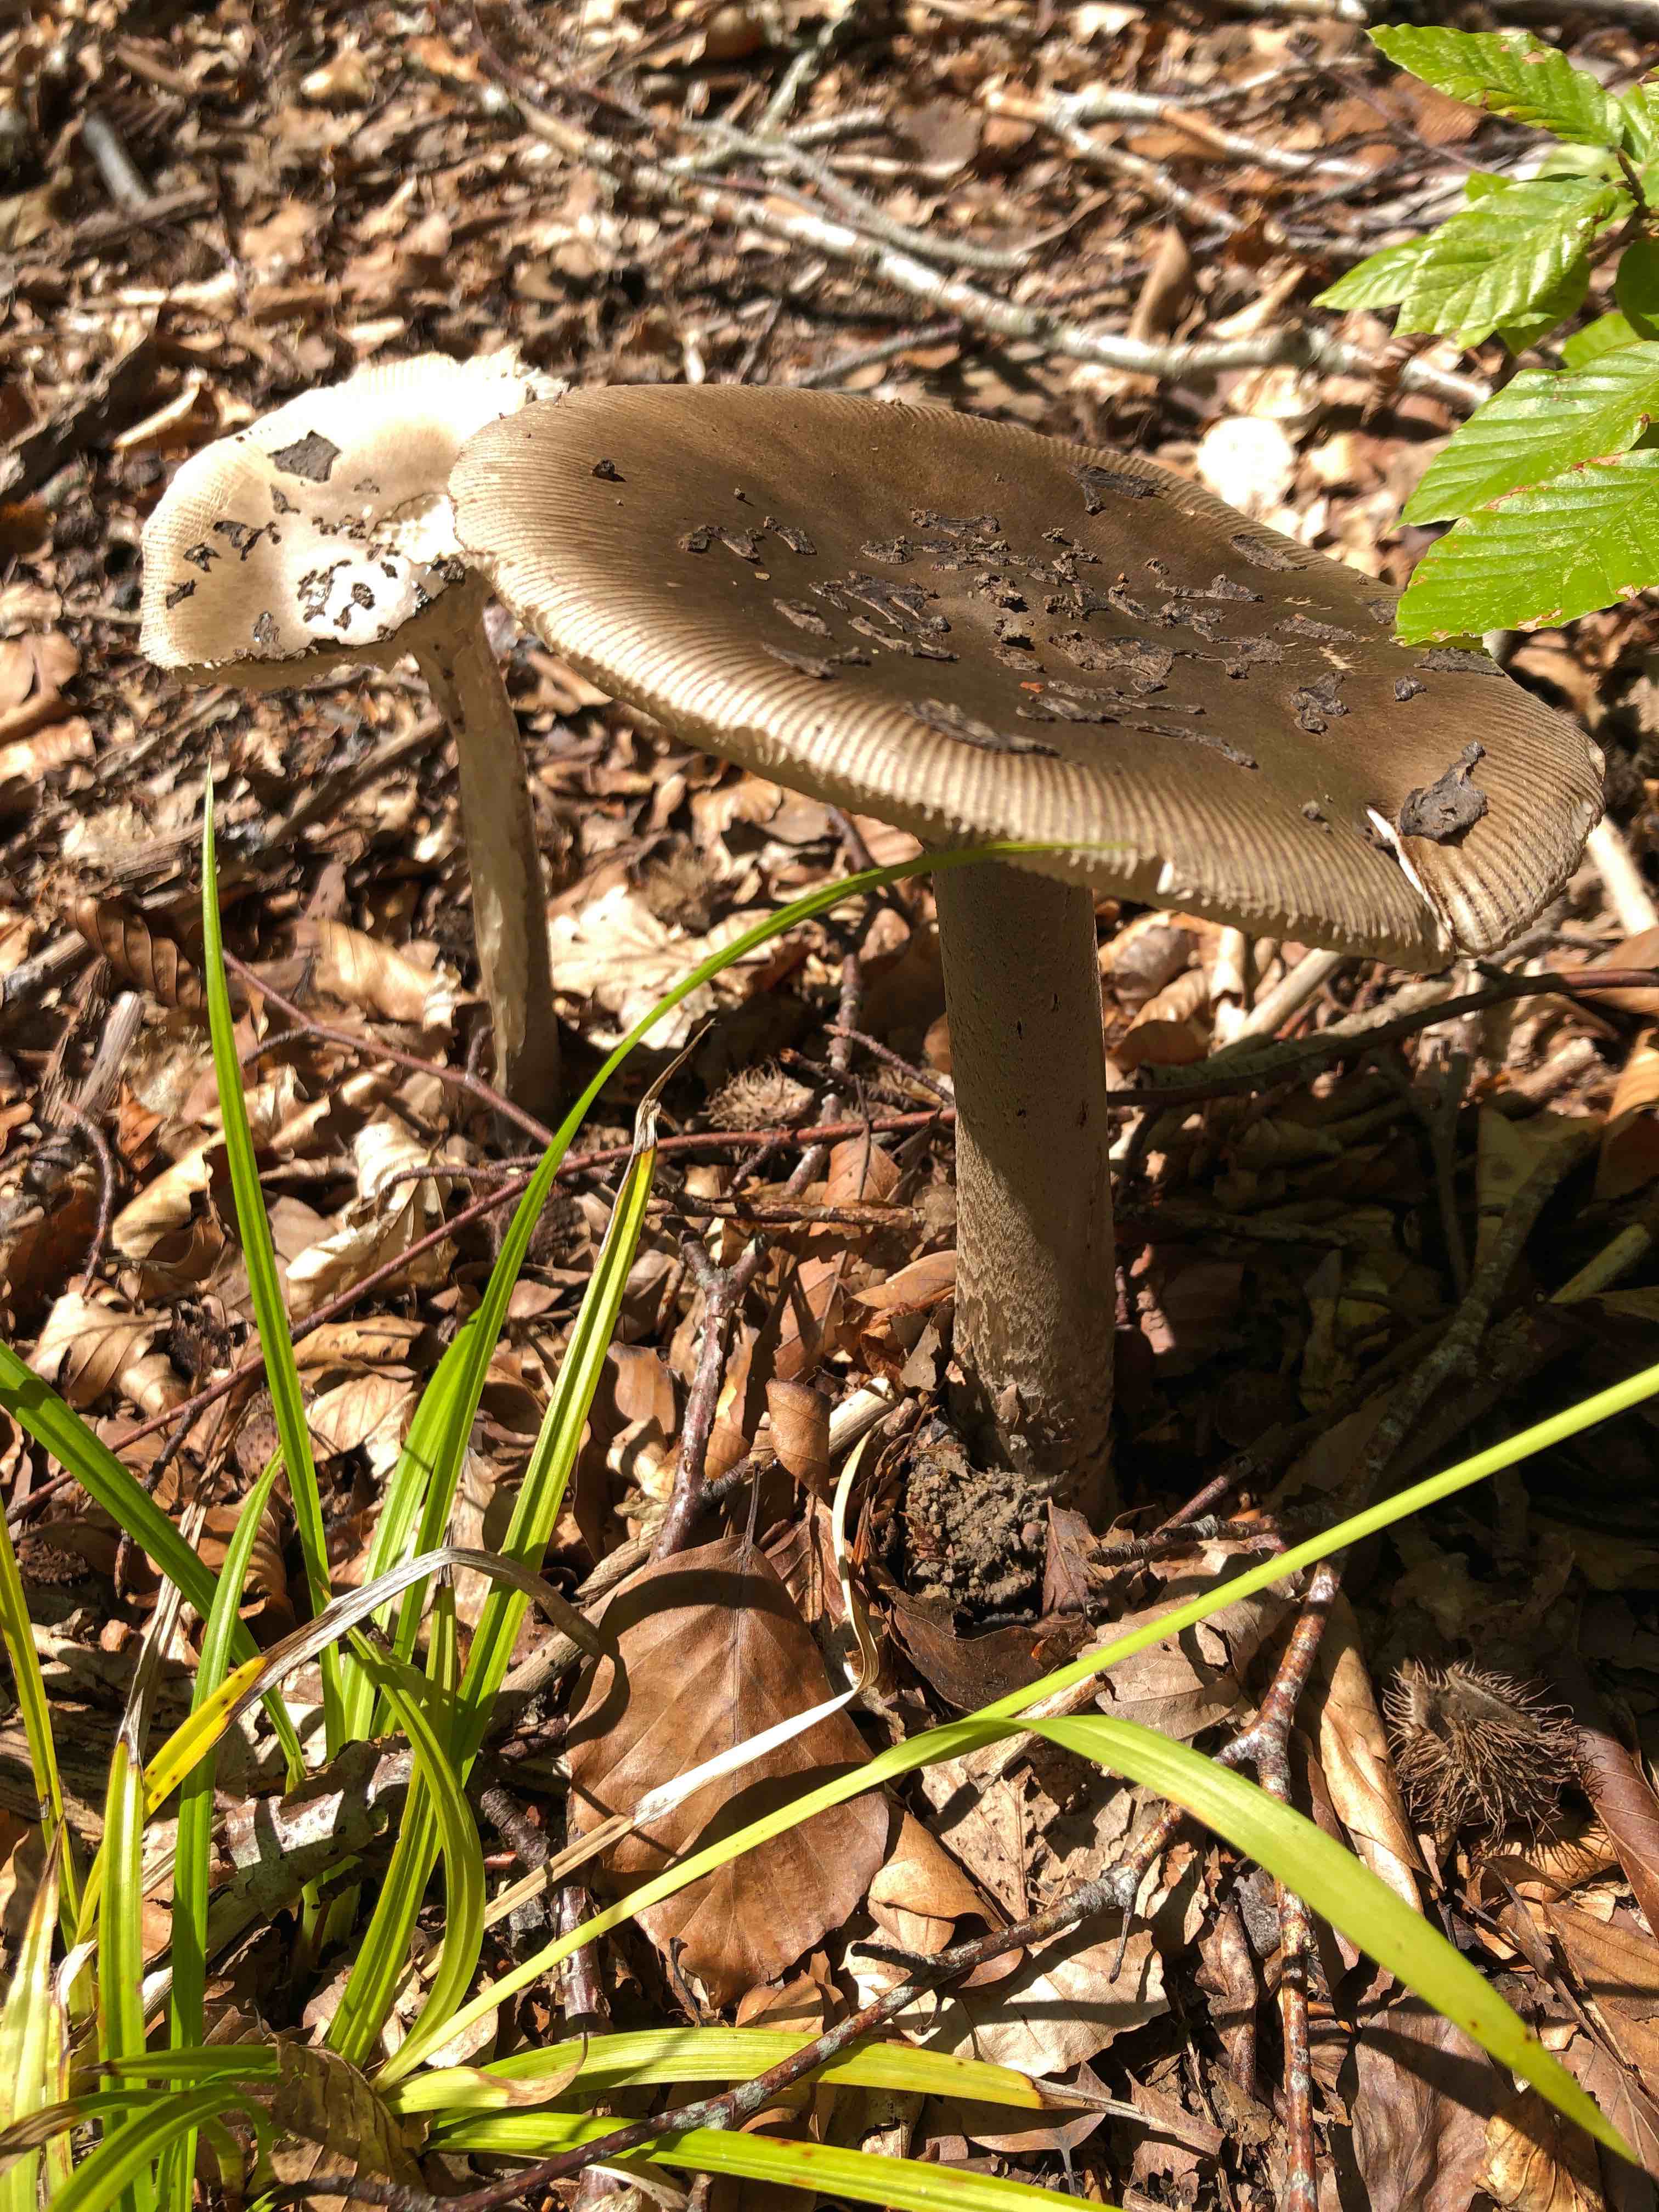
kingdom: Fungi
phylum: Basidiomycota
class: Agaricomycetes
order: Agaricales
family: Amanitaceae
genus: Amanita
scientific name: Amanita ceciliae
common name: stor kam-fluesvamp
